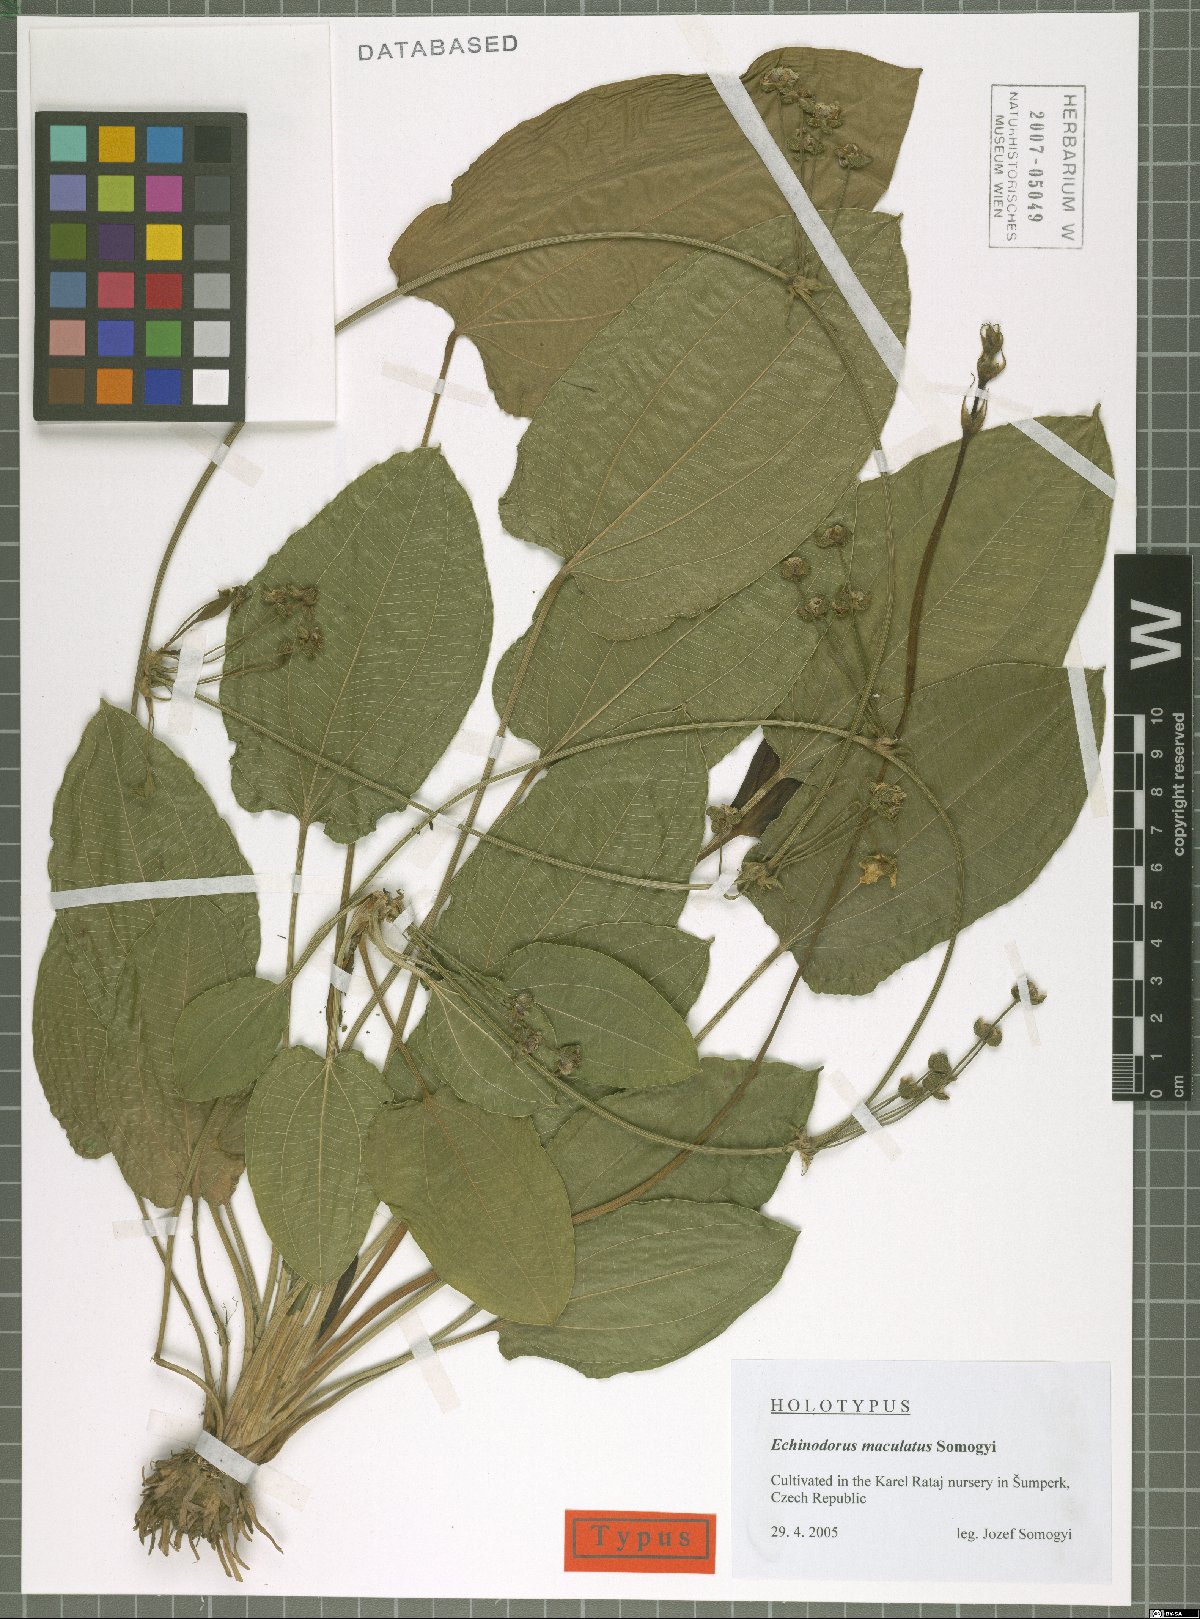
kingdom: Plantae
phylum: Tracheophyta
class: Liliopsida
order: Alismatales
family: Alismataceae
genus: Echinodorus
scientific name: Echinodorus maculatus
